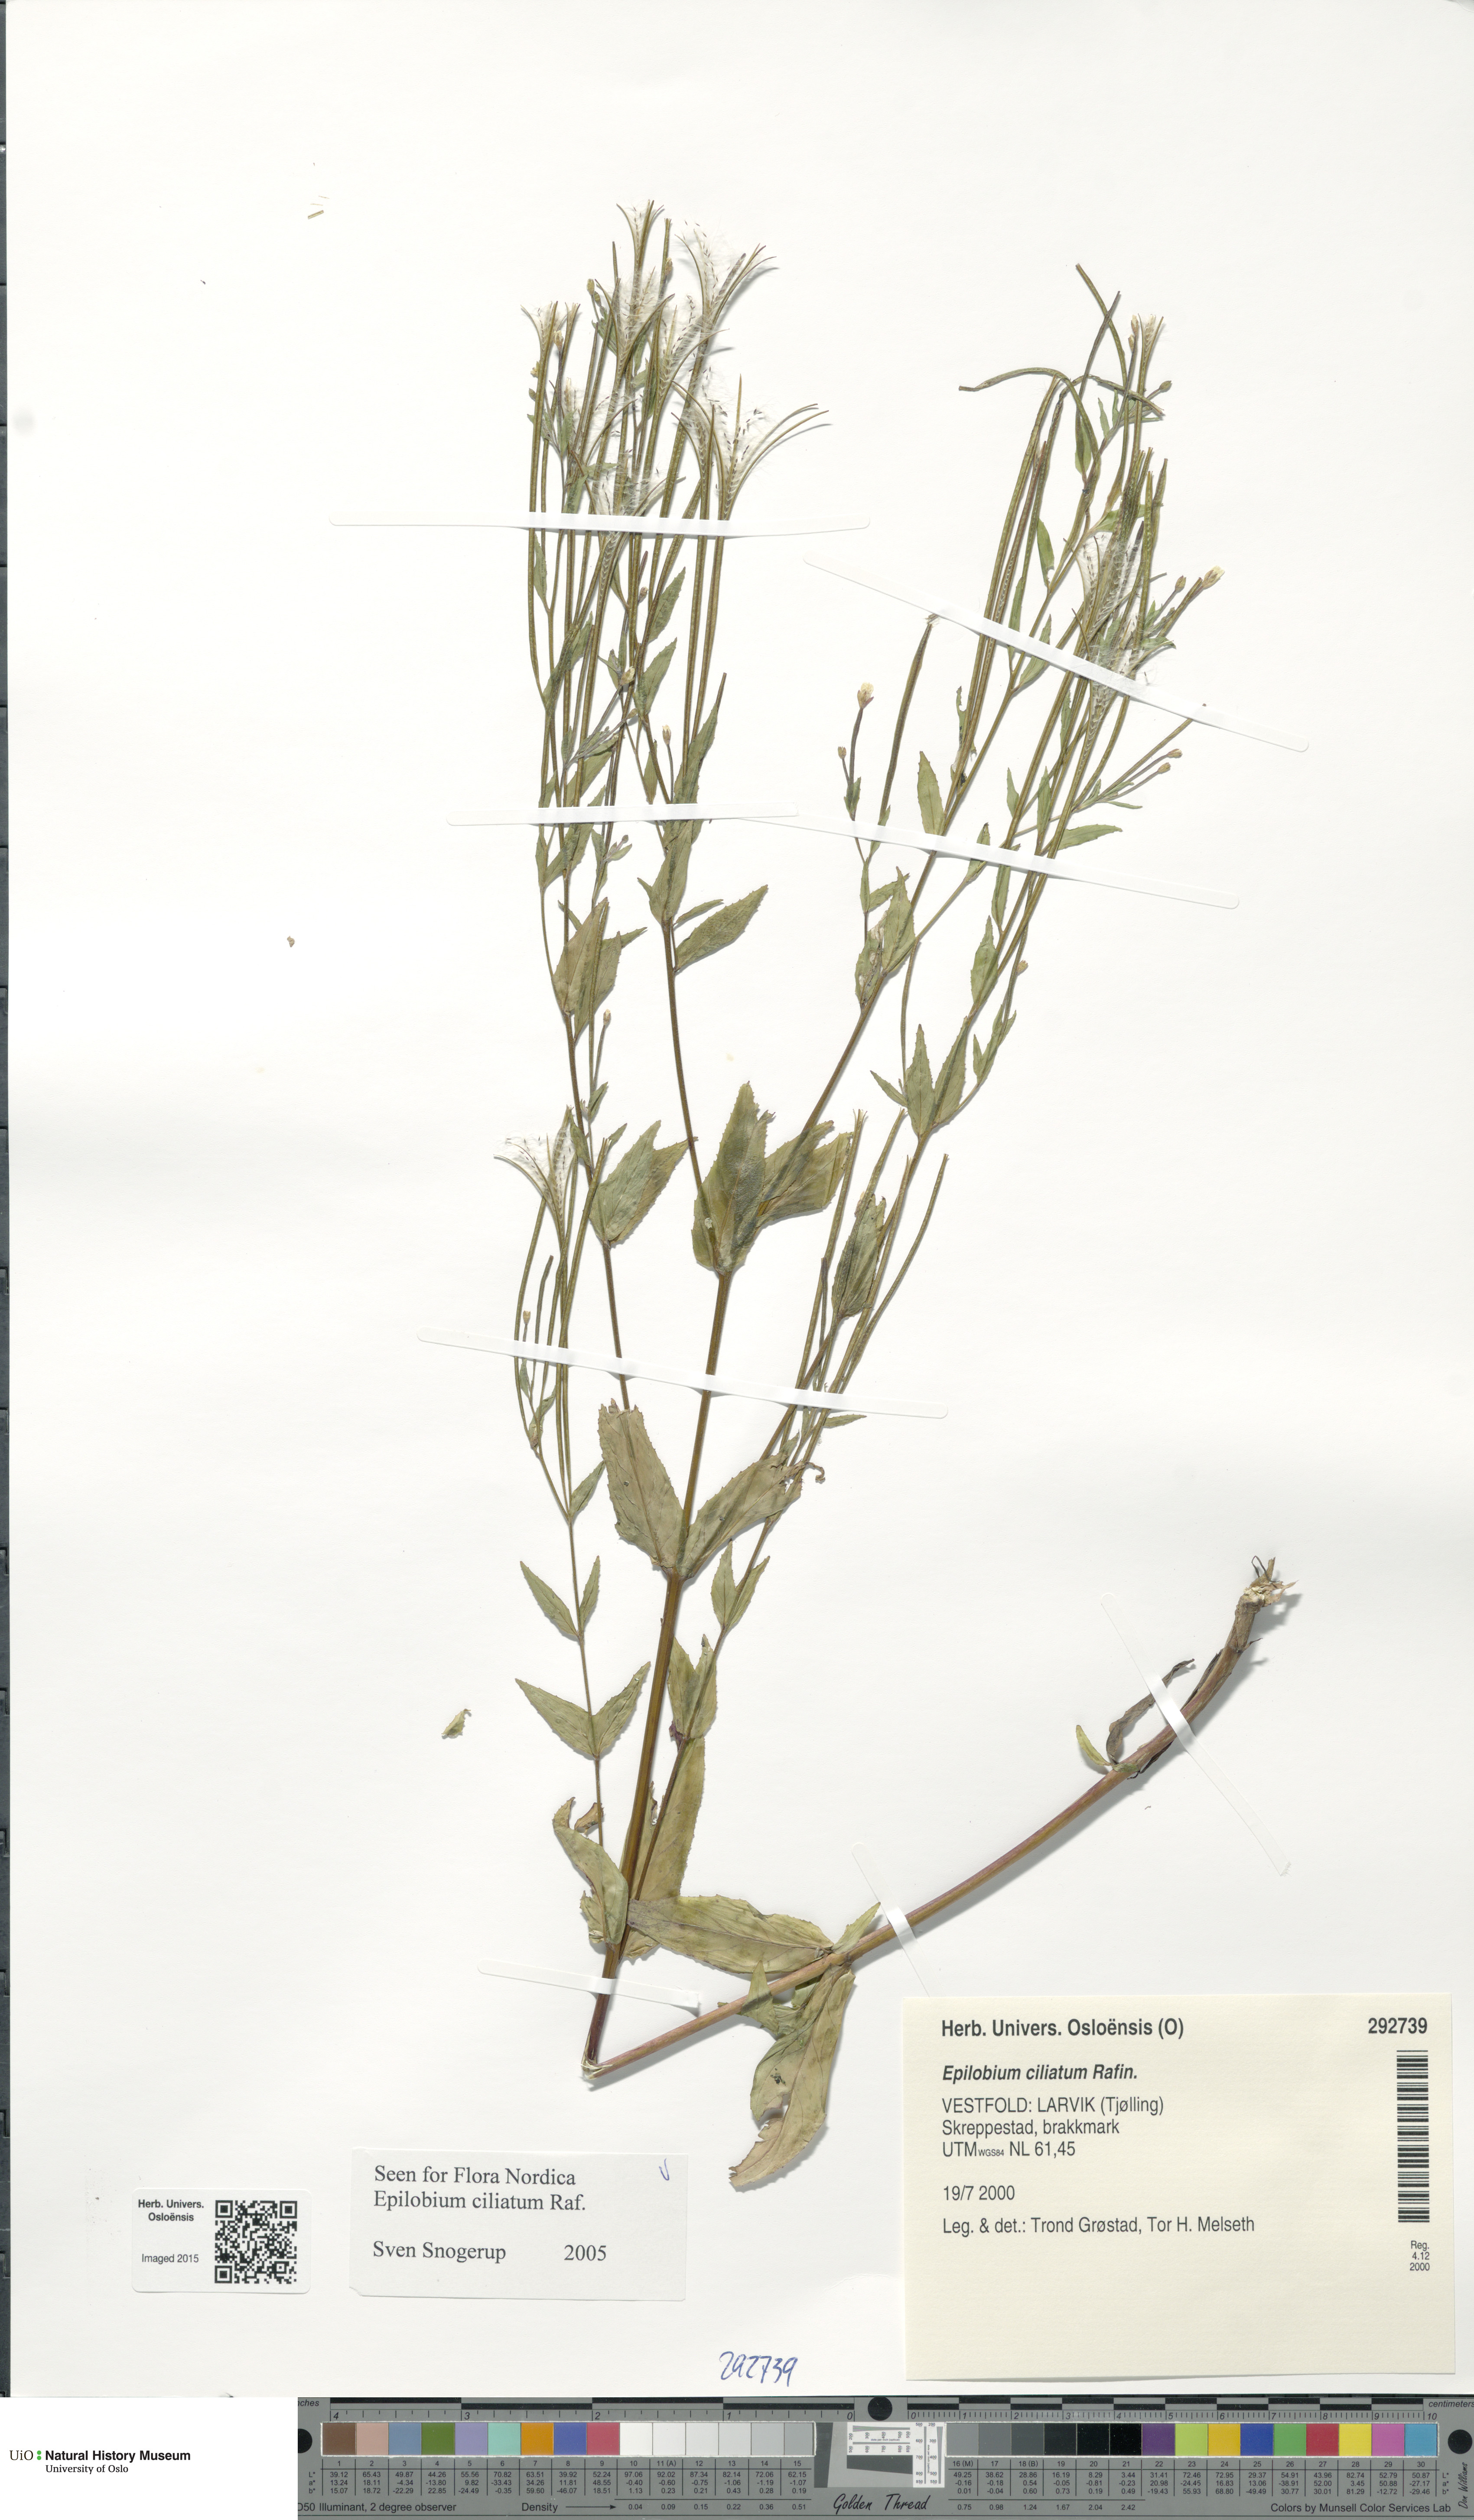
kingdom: Plantae
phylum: Tracheophyta
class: Magnoliopsida
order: Myrtales
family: Onagraceae
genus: Epilobium
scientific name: Epilobium ciliatum
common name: American willowherb
